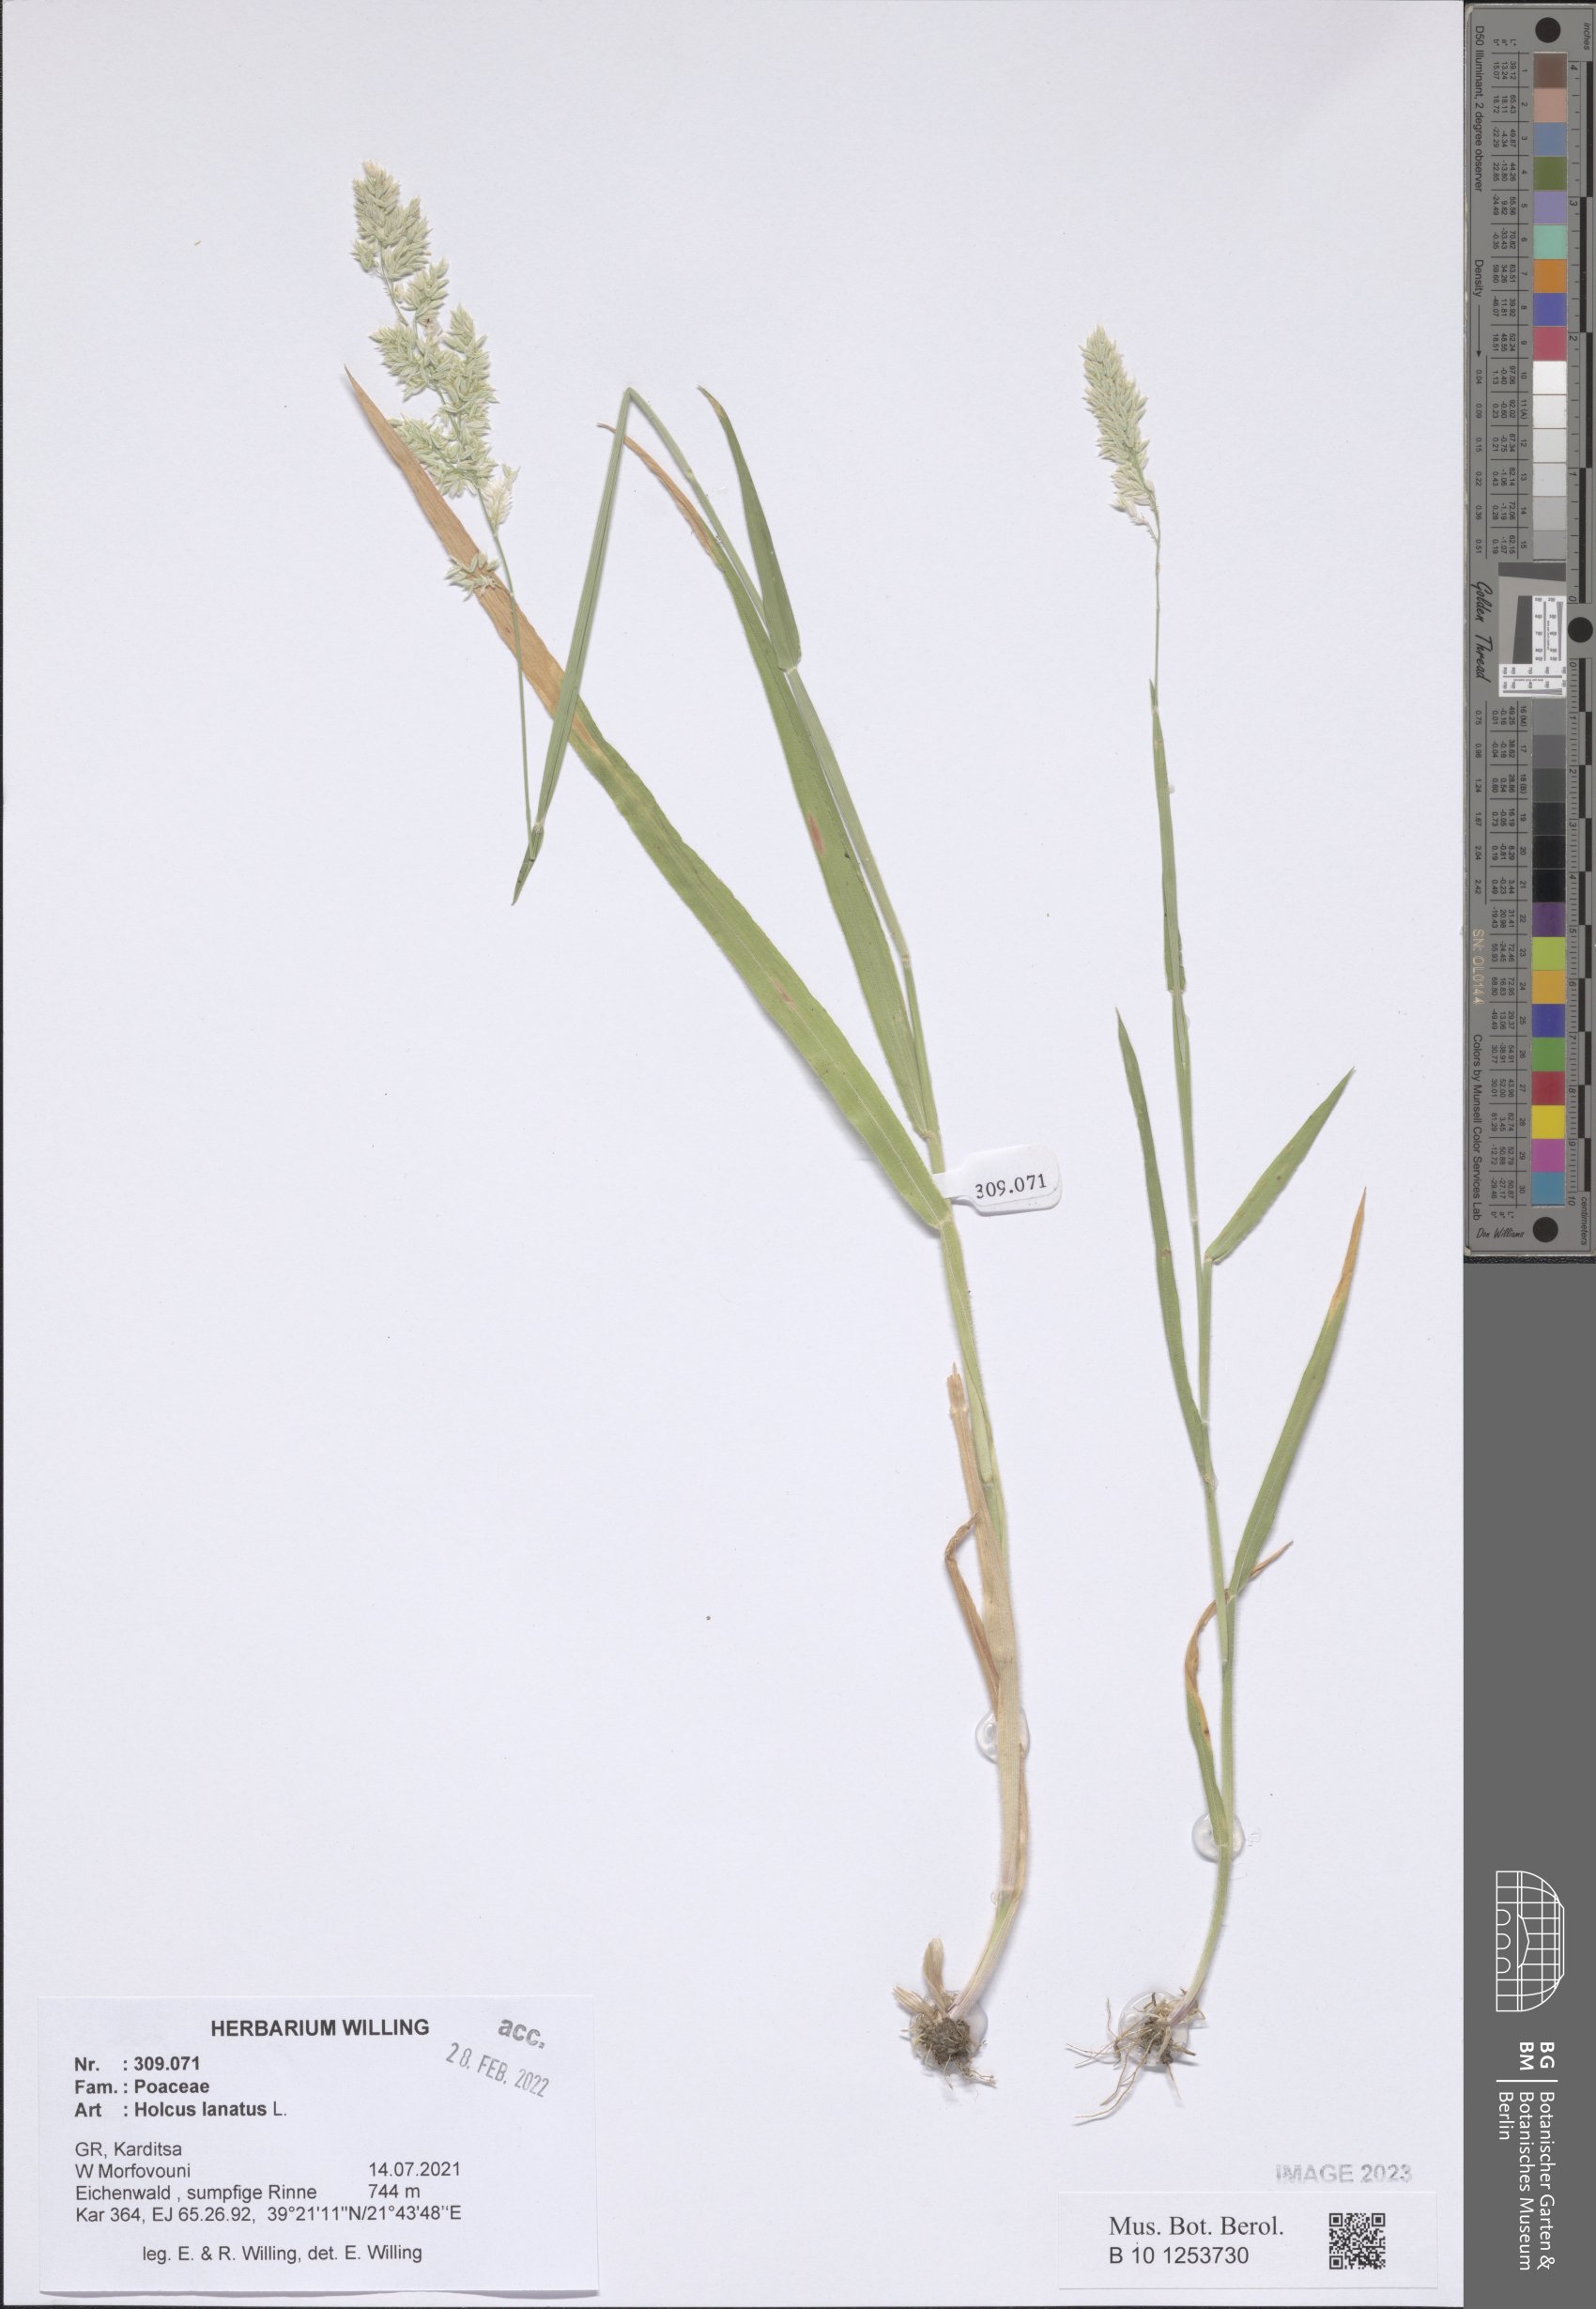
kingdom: Plantae
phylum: Tracheophyta
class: Liliopsida
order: Poales
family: Poaceae
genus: Holcus
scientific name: Holcus lanatus
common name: Yorkshire-fog
